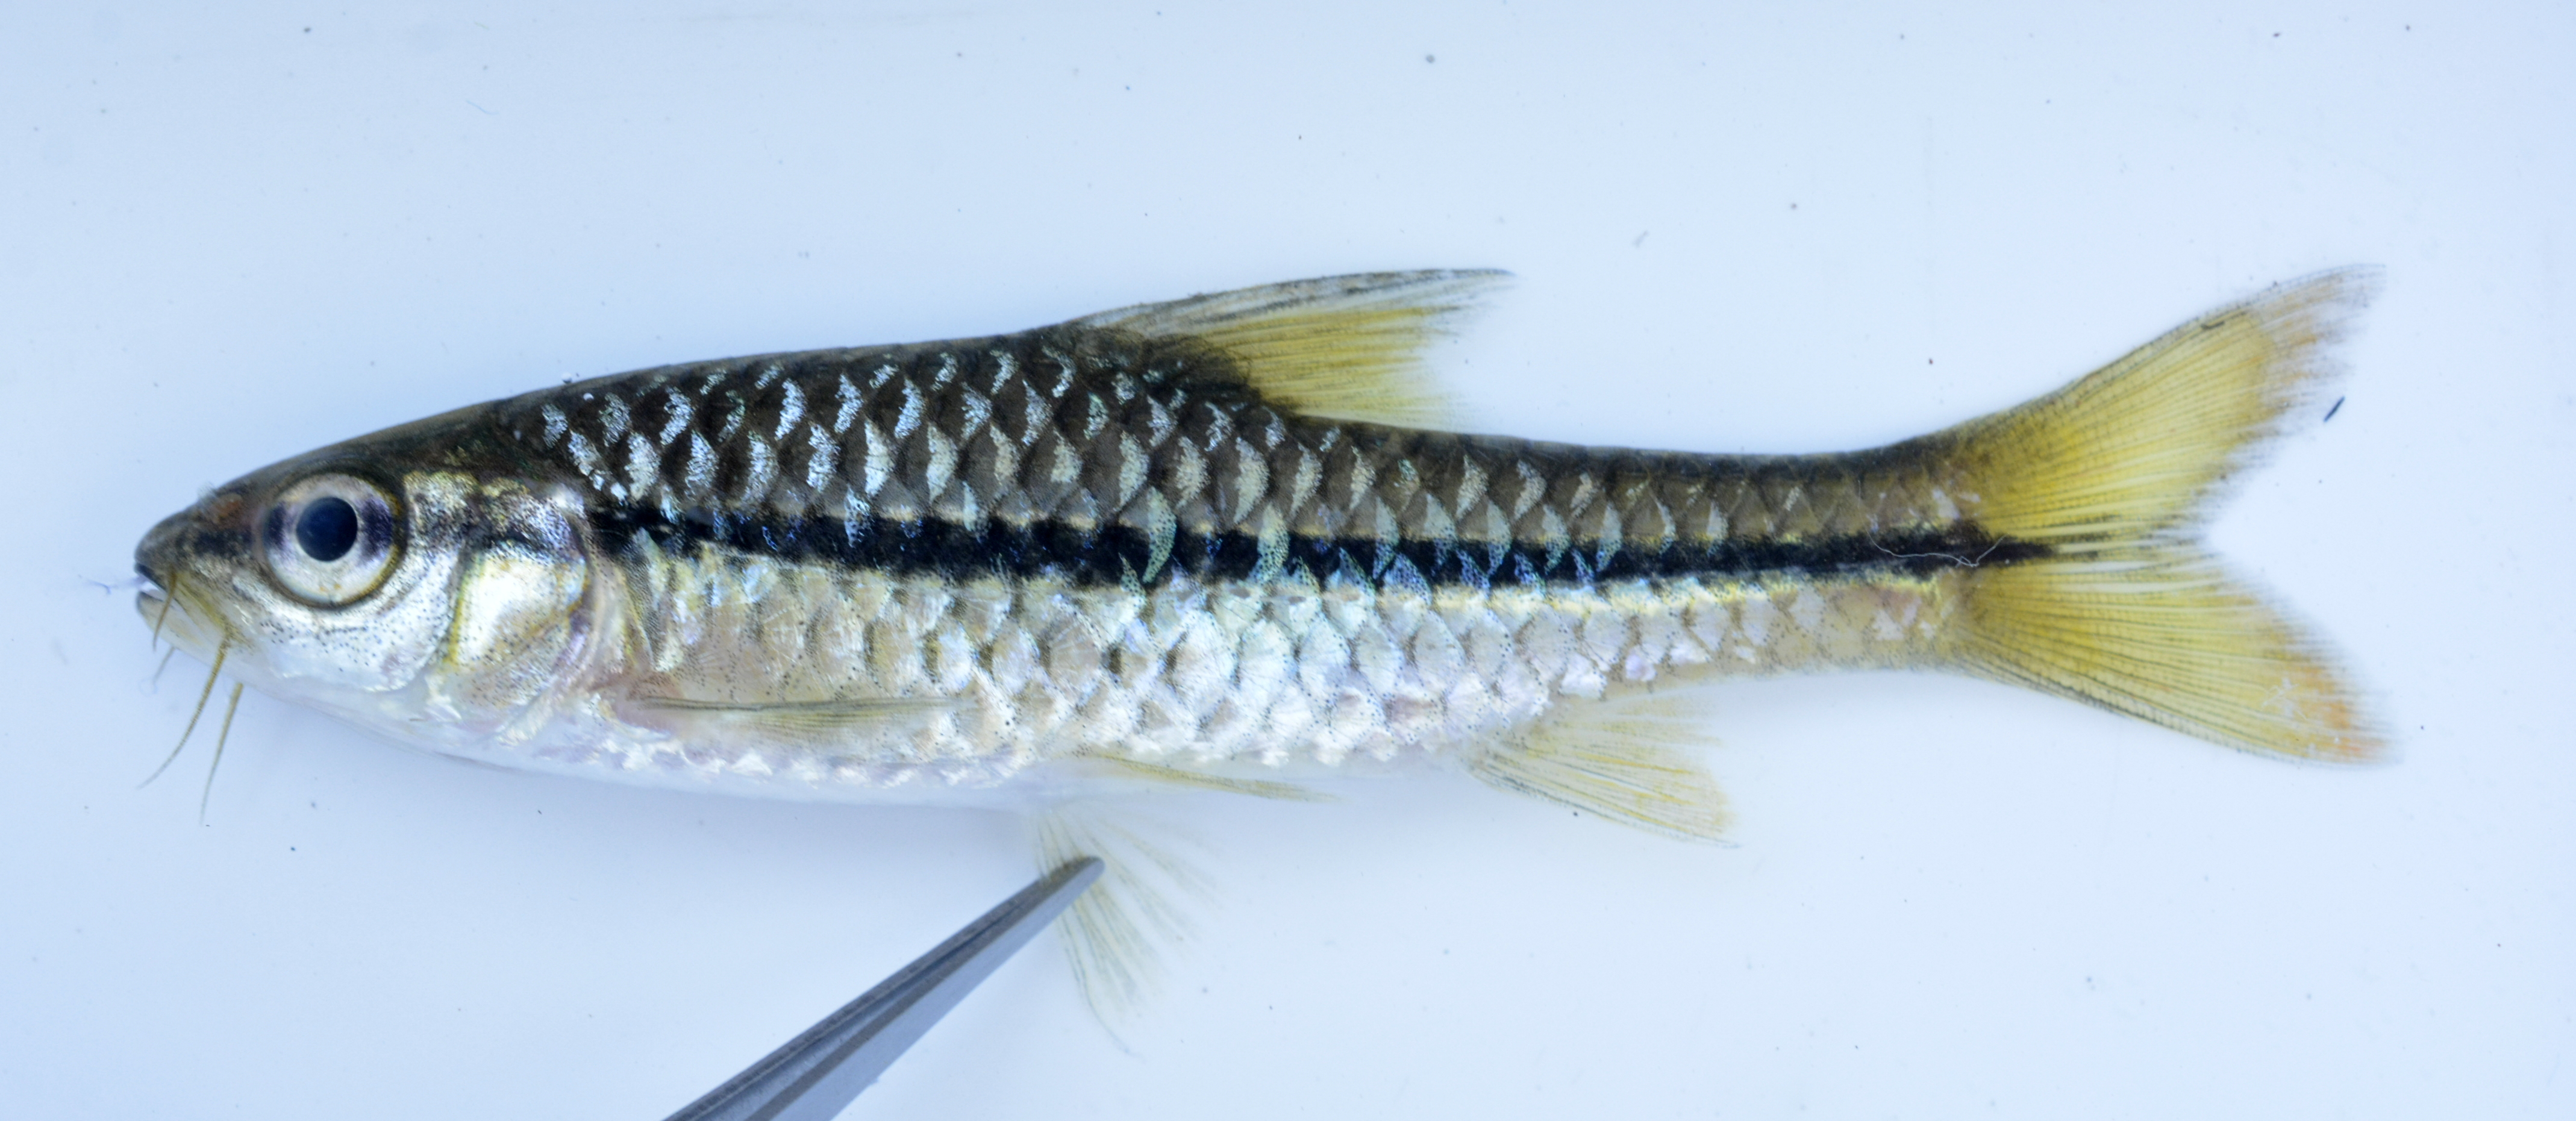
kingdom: Animalia
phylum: Chordata
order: Cypriniformes
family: Cyprinidae
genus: Enteromius
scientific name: Enteromius eutaenia
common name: Orangefin barb
